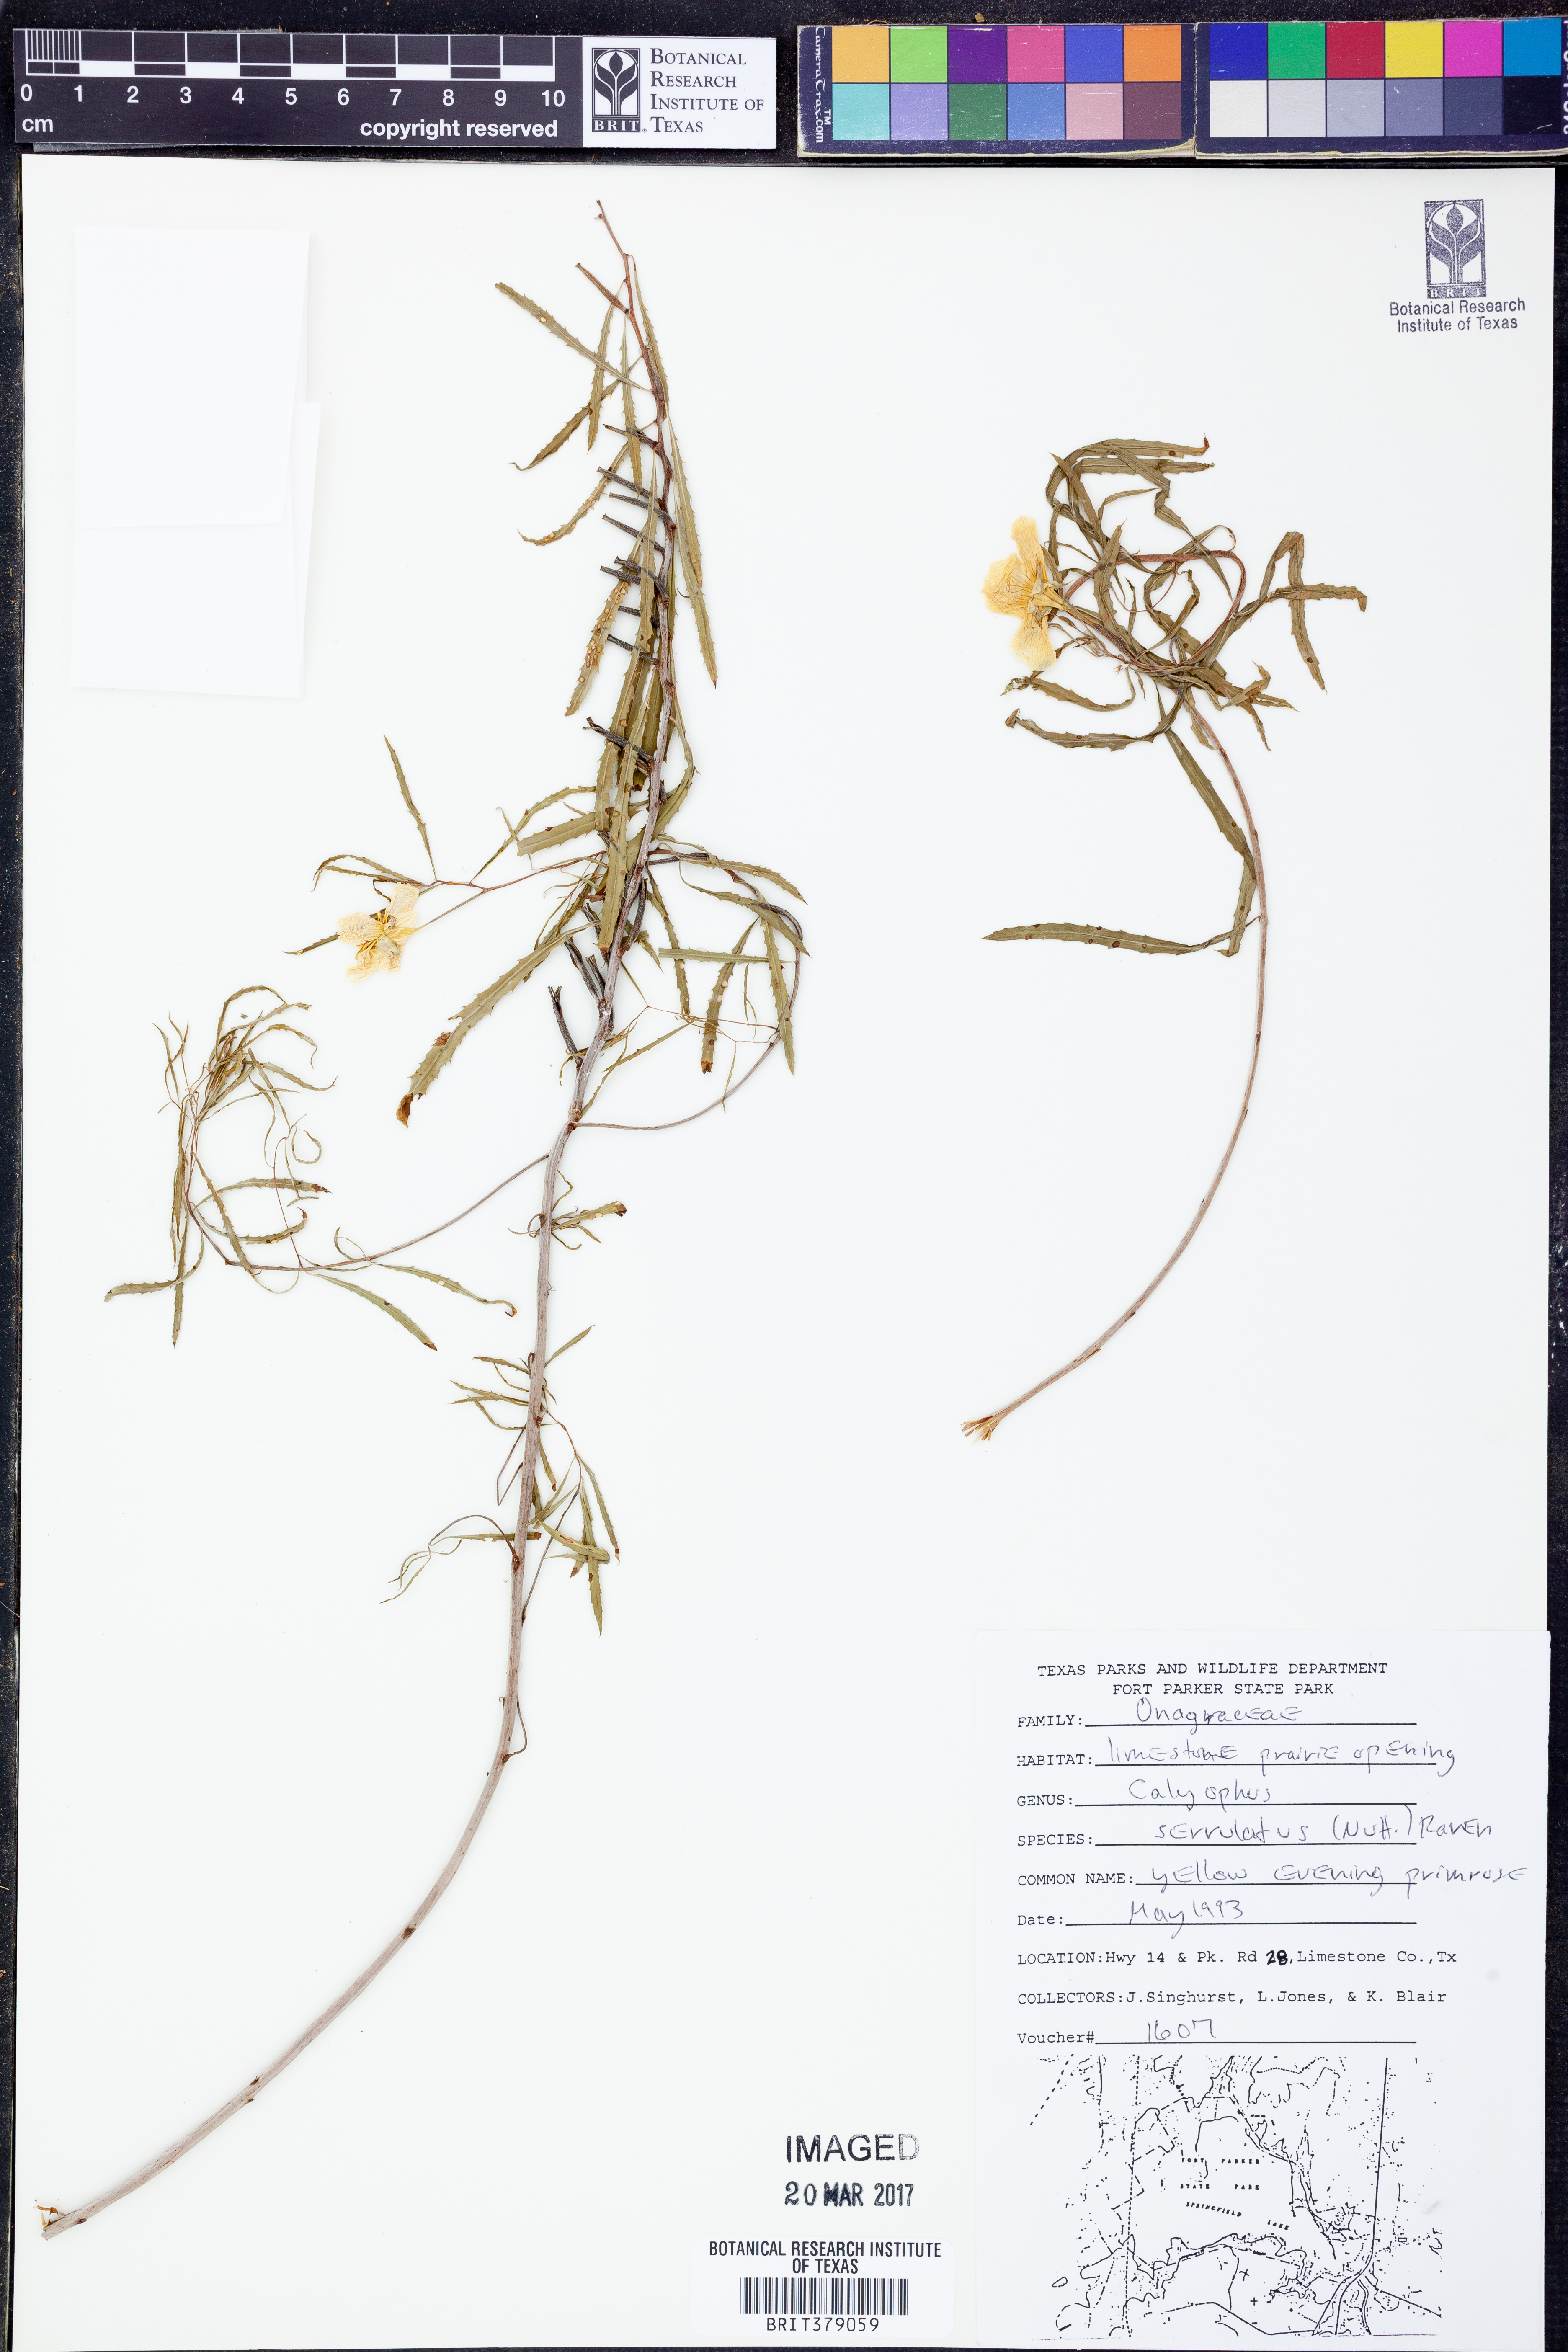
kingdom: Plantae
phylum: Tracheophyta
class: Magnoliopsida
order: Myrtales
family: Onagraceae
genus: Oenothera
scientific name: Oenothera serrulata
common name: Half-shrub calylophus
